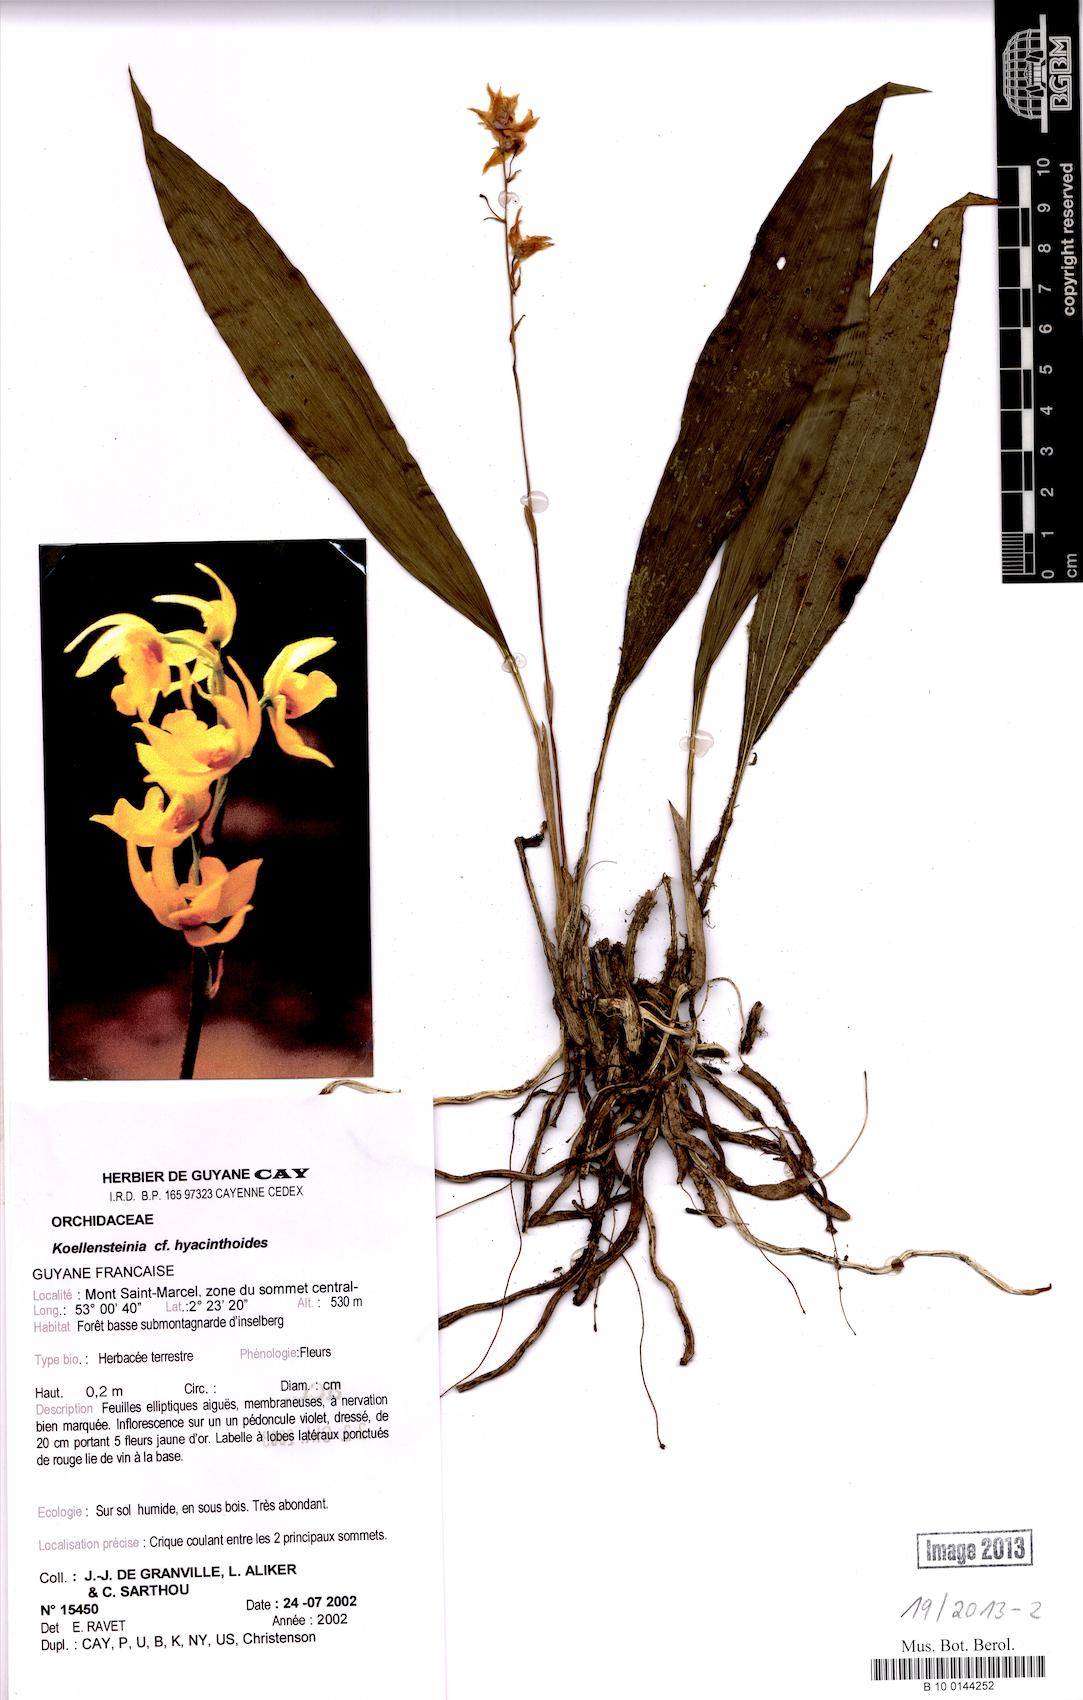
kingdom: Plantae
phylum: Tracheophyta
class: Liliopsida
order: Asparagales
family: Orchidaceae
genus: Koellensteinia
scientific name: Koellensteinia hyacinthoides
